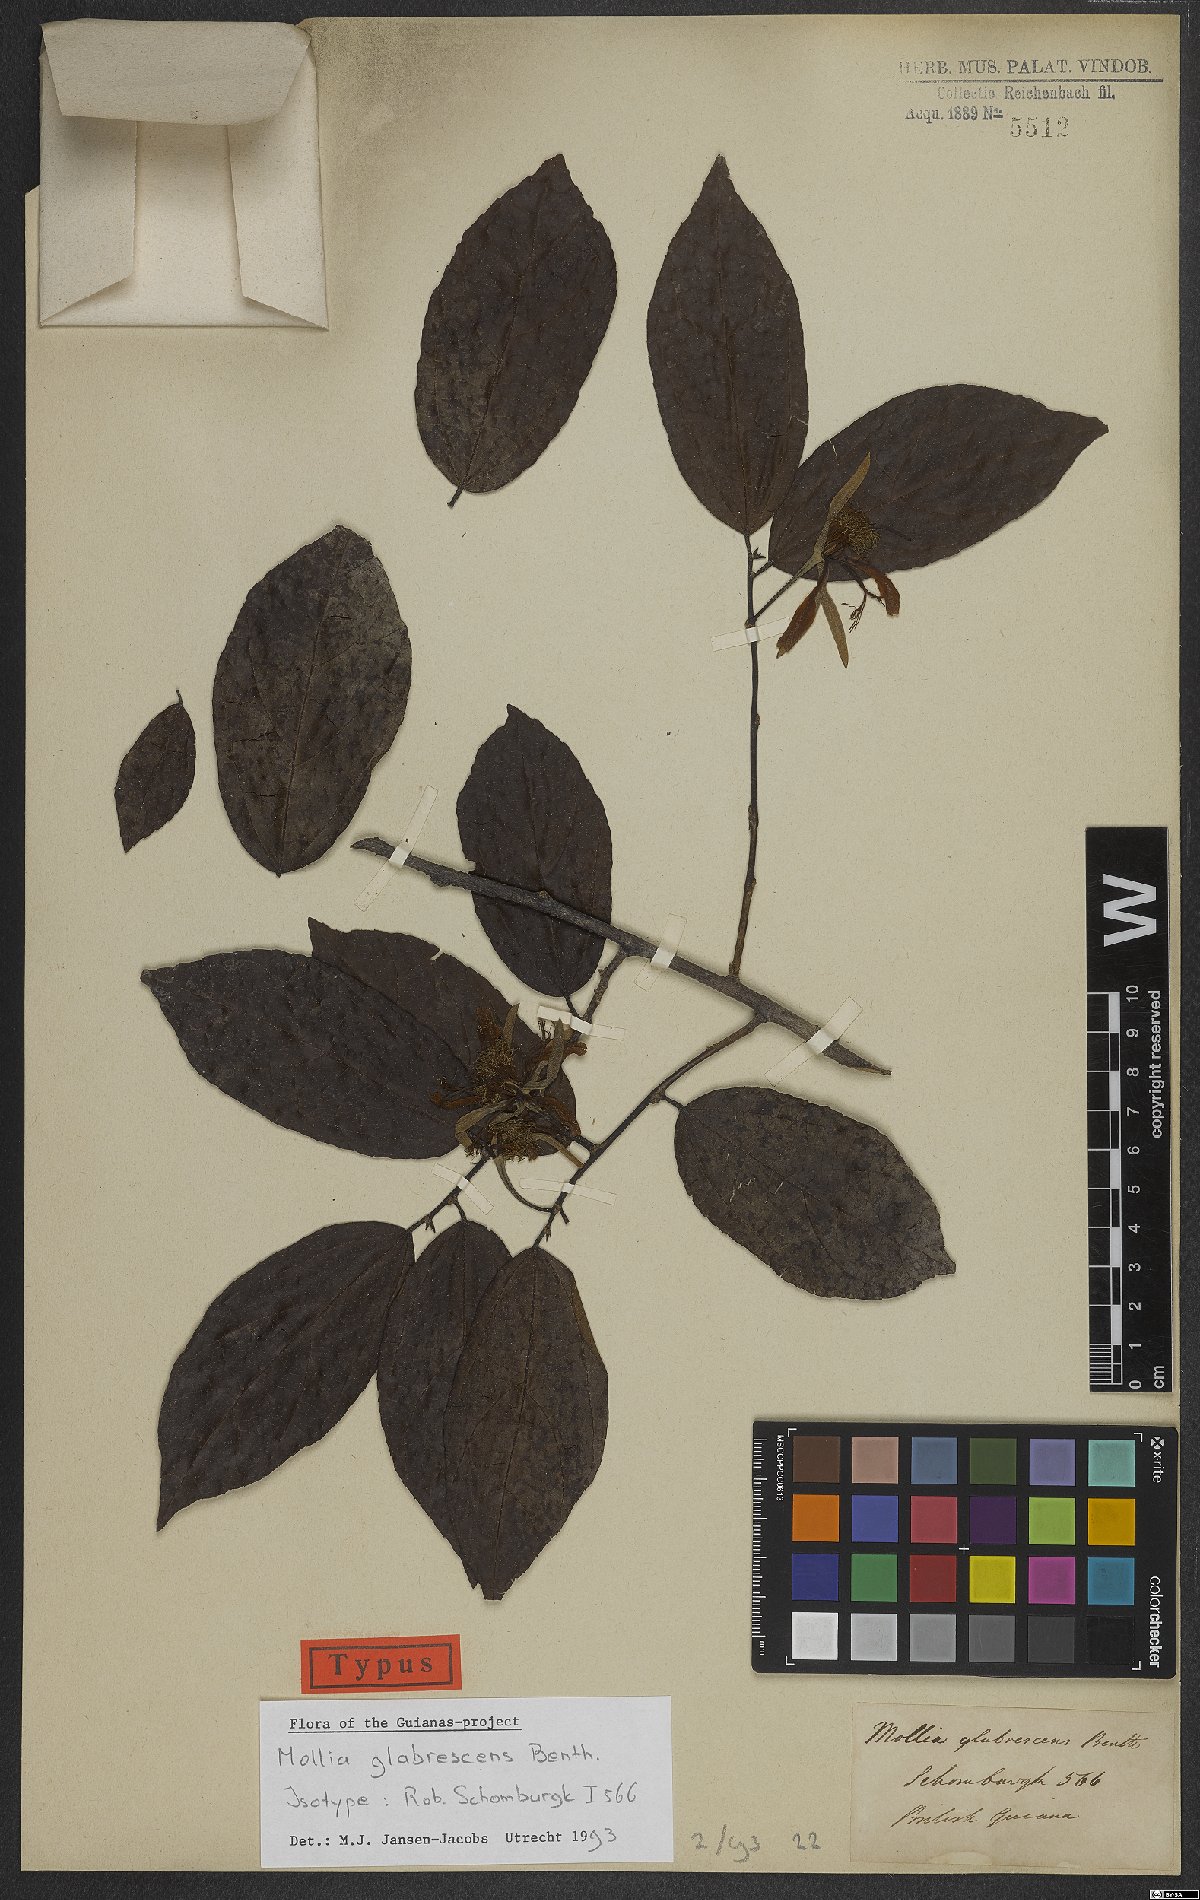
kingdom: Plantae
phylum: Tracheophyta
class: Magnoliopsida
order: Malvales
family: Malvaceae
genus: Mollia
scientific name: Mollia glabrescens
